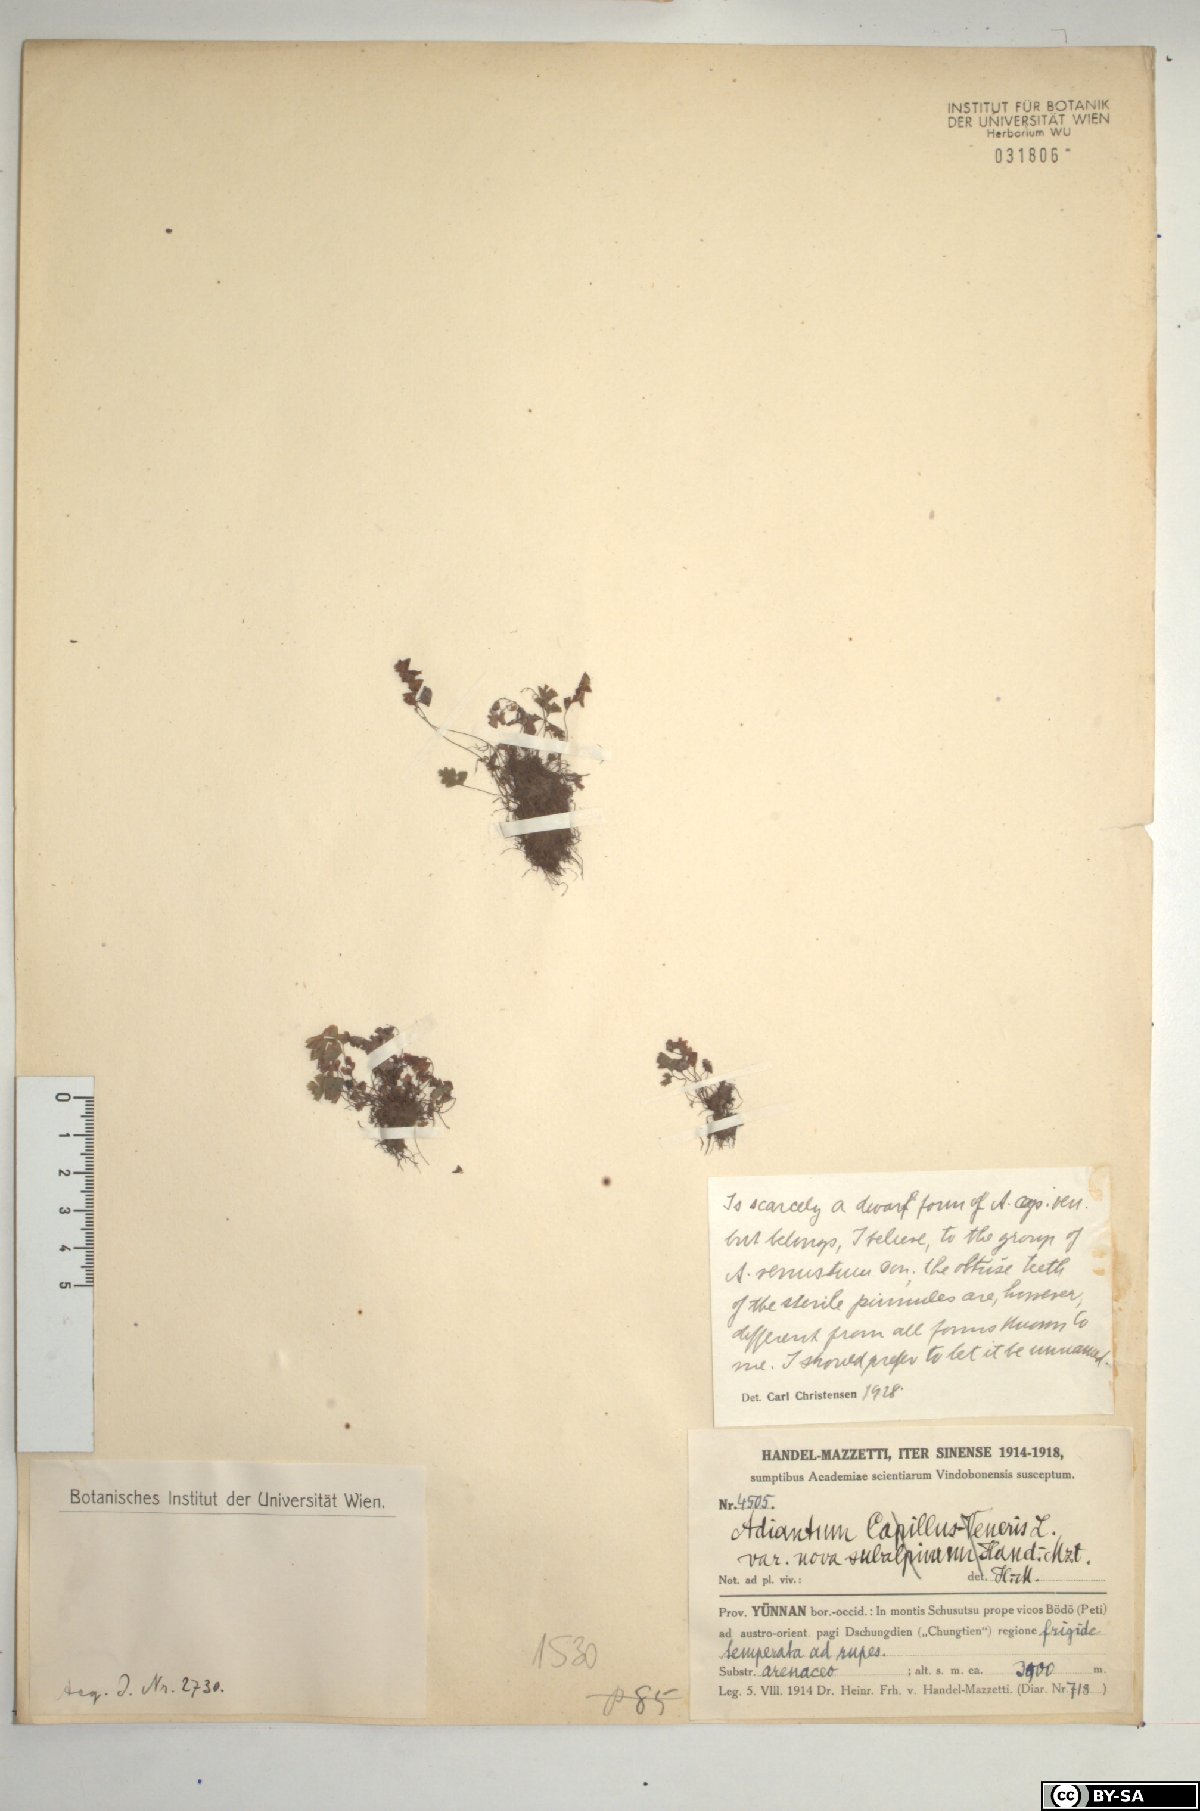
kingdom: Plantae
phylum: Tracheophyta
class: Polypodiopsida
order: Polypodiales
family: Pteridaceae
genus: Adiantum
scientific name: Adiantum
